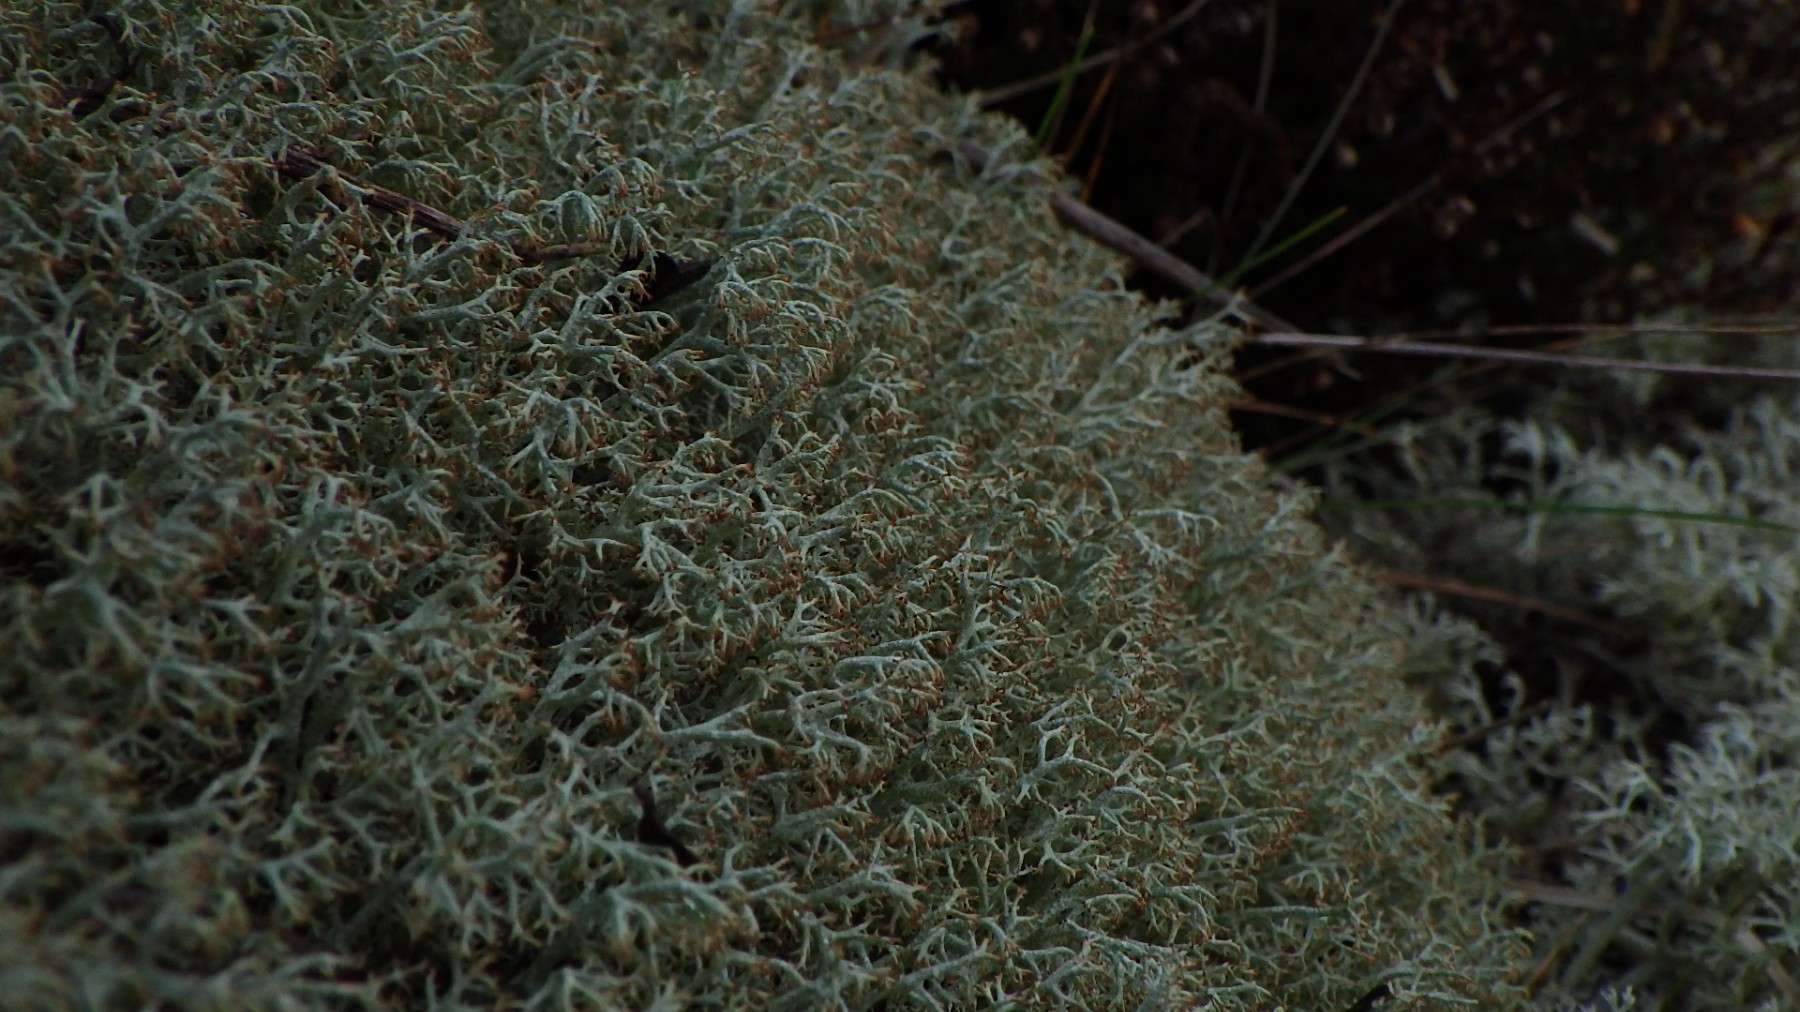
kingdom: Fungi
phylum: Ascomycota
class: Lecanoromycetes
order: Lecanorales
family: Cladoniaceae
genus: Cladonia
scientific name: Cladonia ciliata
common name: spinkel rensdyrlav
